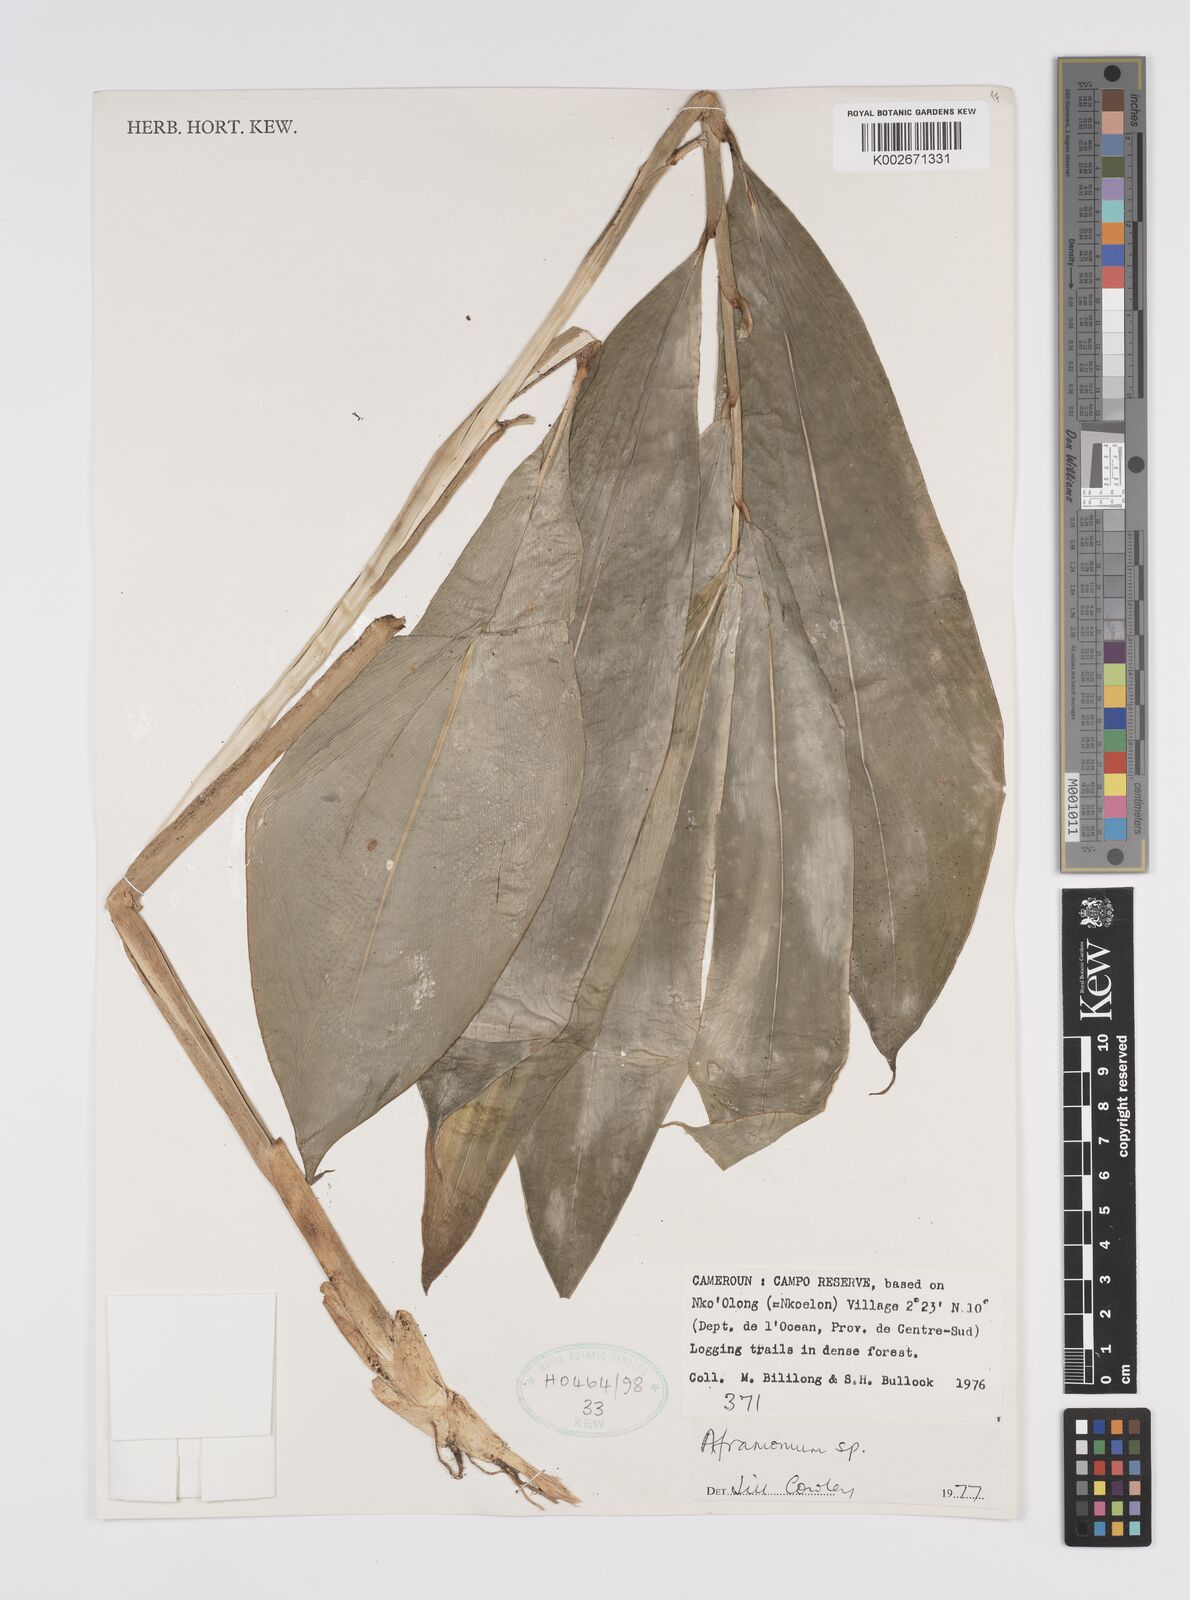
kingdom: Plantae
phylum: Tracheophyta
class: Liliopsida
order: Zingiberales
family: Zingiberaceae
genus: Aframomum
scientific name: Aframomum
